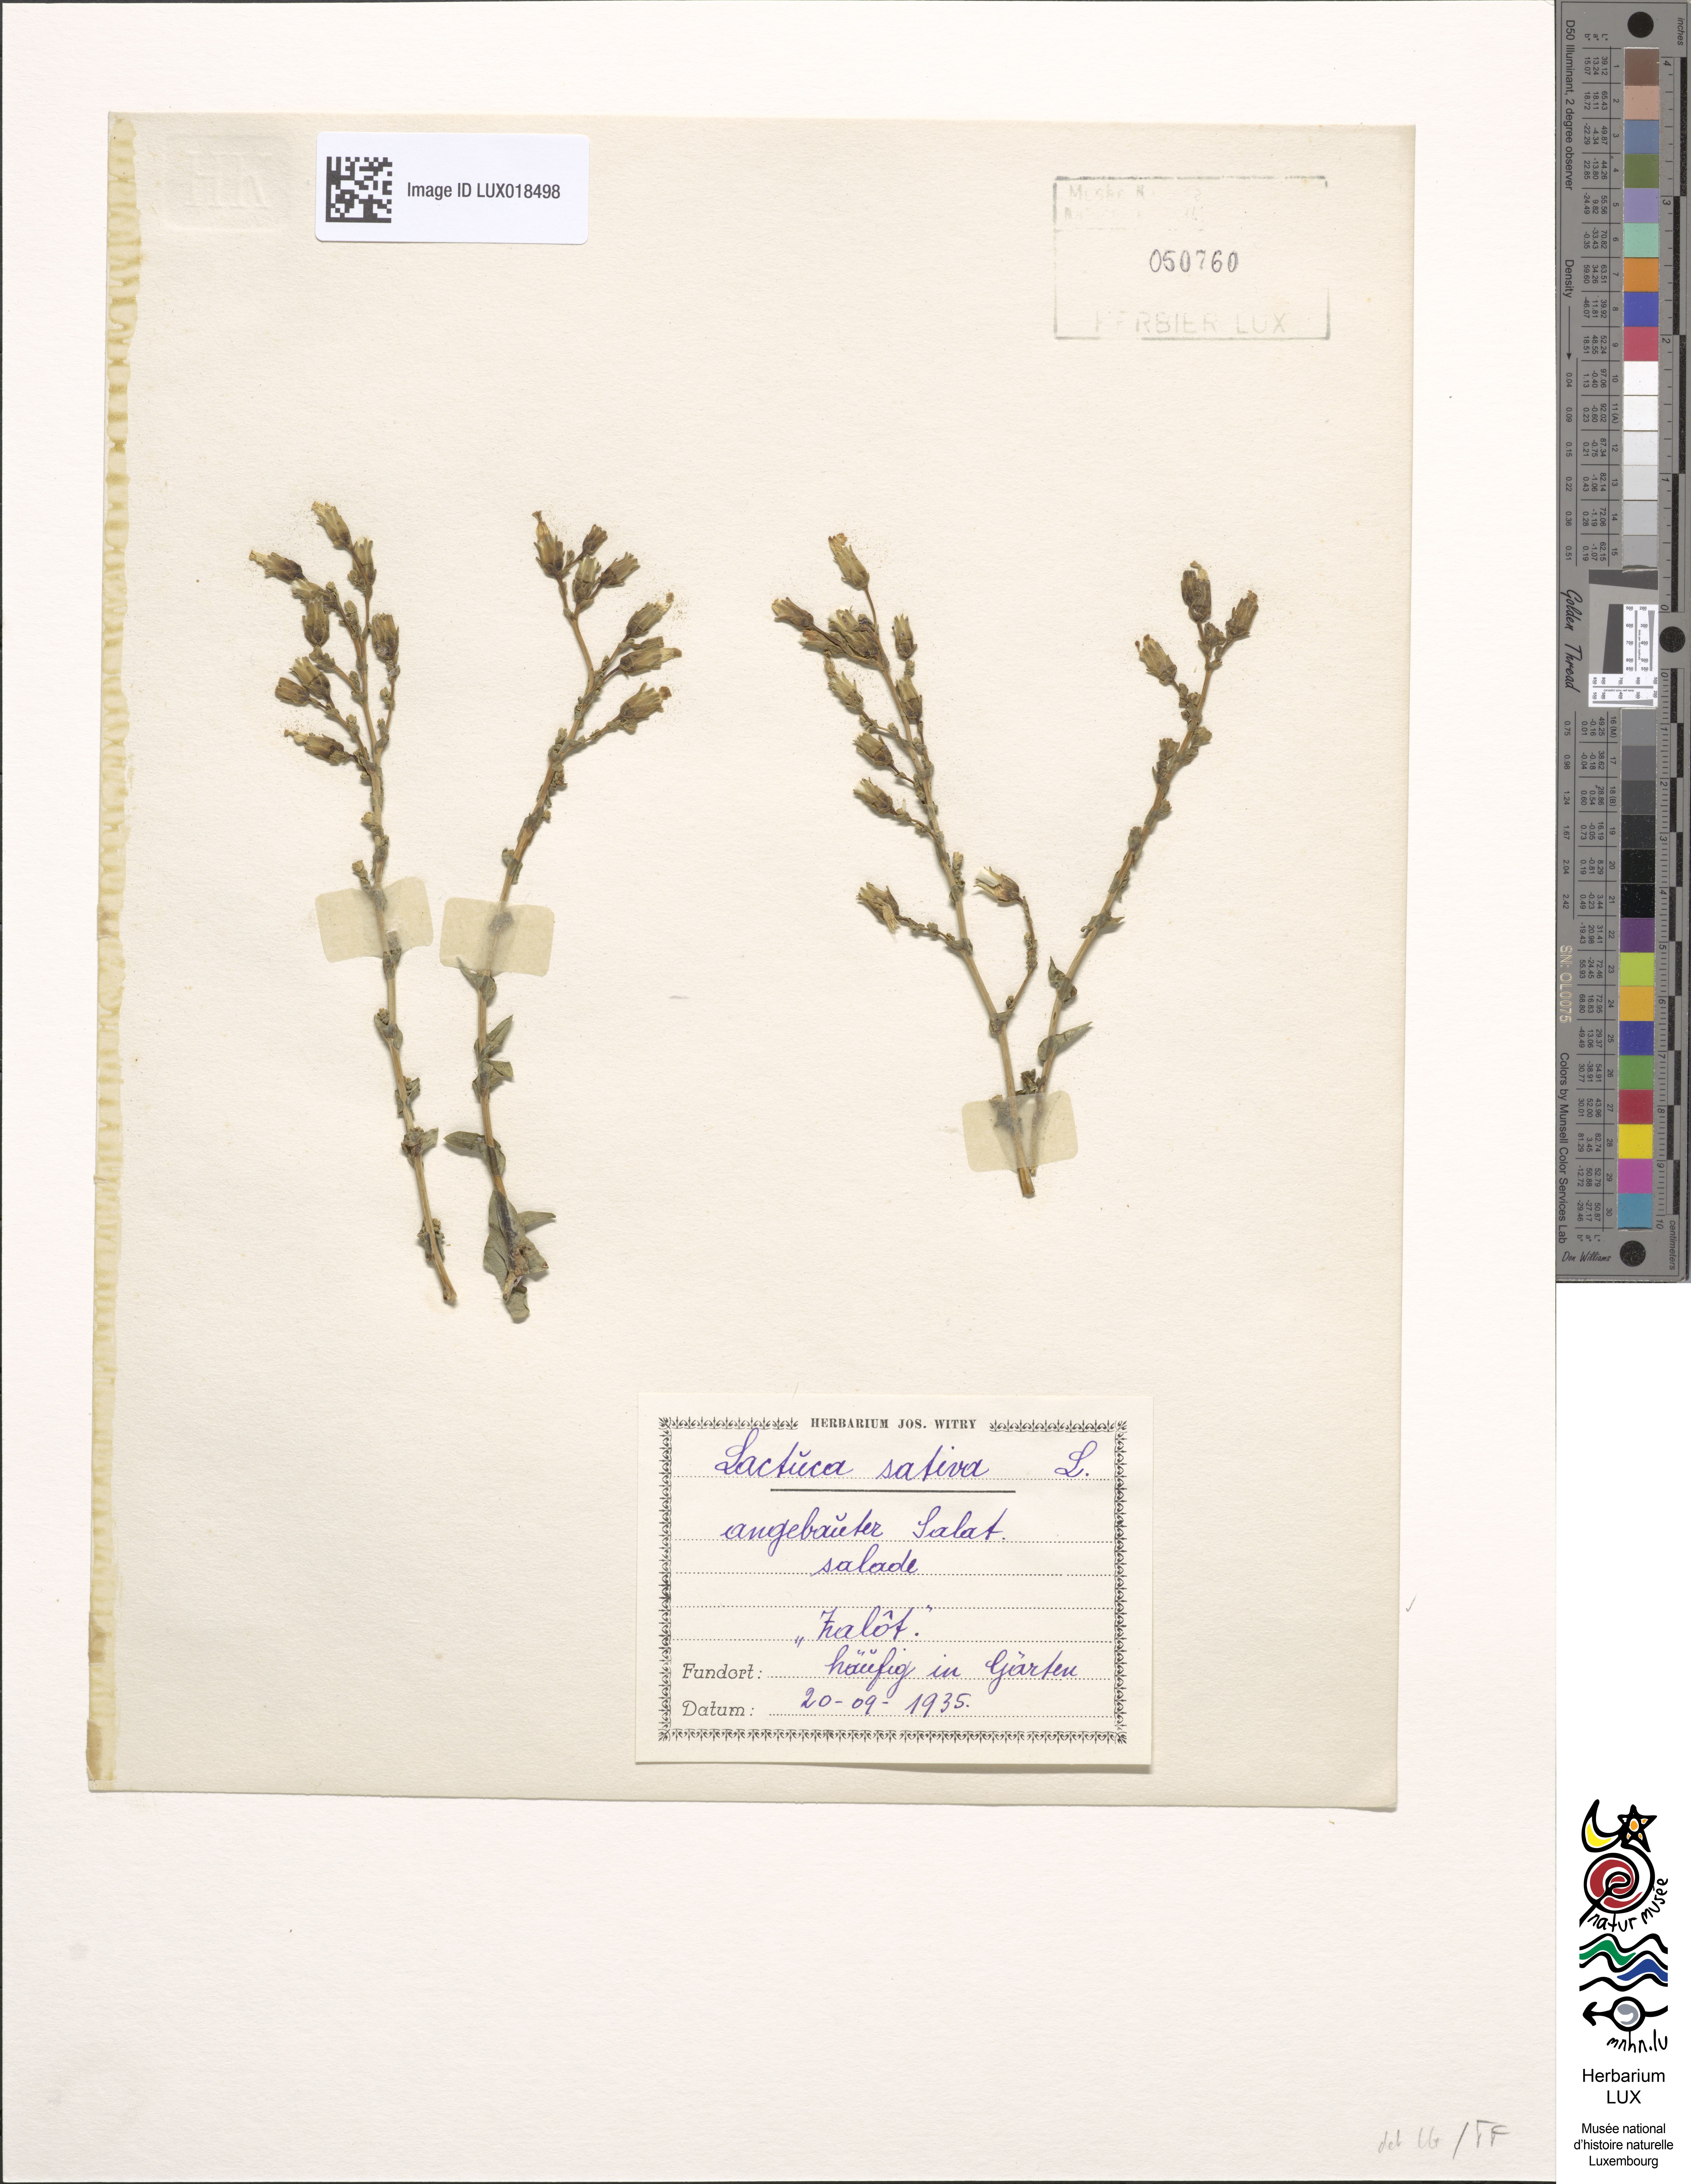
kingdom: Plantae
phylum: Tracheophyta
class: Magnoliopsida
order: Asterales
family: Asteraceae
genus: Lactuca
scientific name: Lactuca sativa
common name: Garden lettuce
